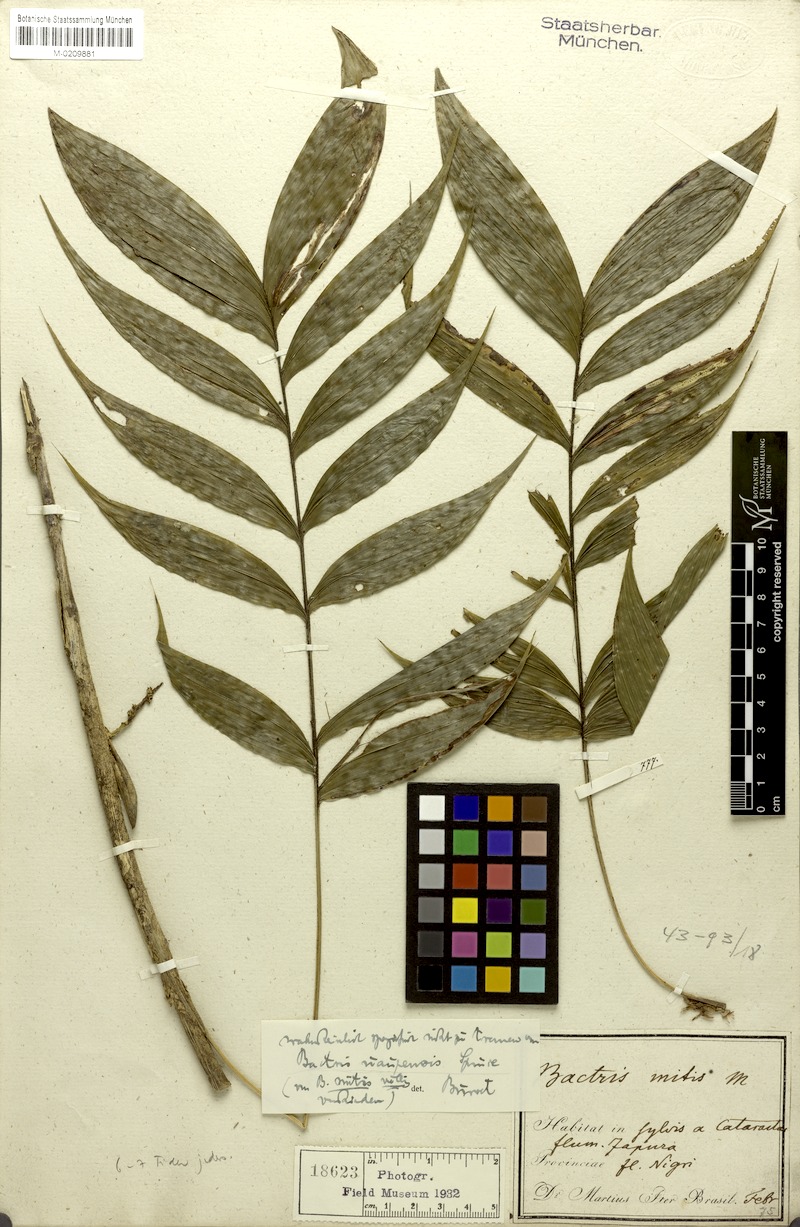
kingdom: Plantae
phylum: Tracheophyta
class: Liliopsida
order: Arecales
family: Arecaceae
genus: Bactris
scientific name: Bactris cuspidata
